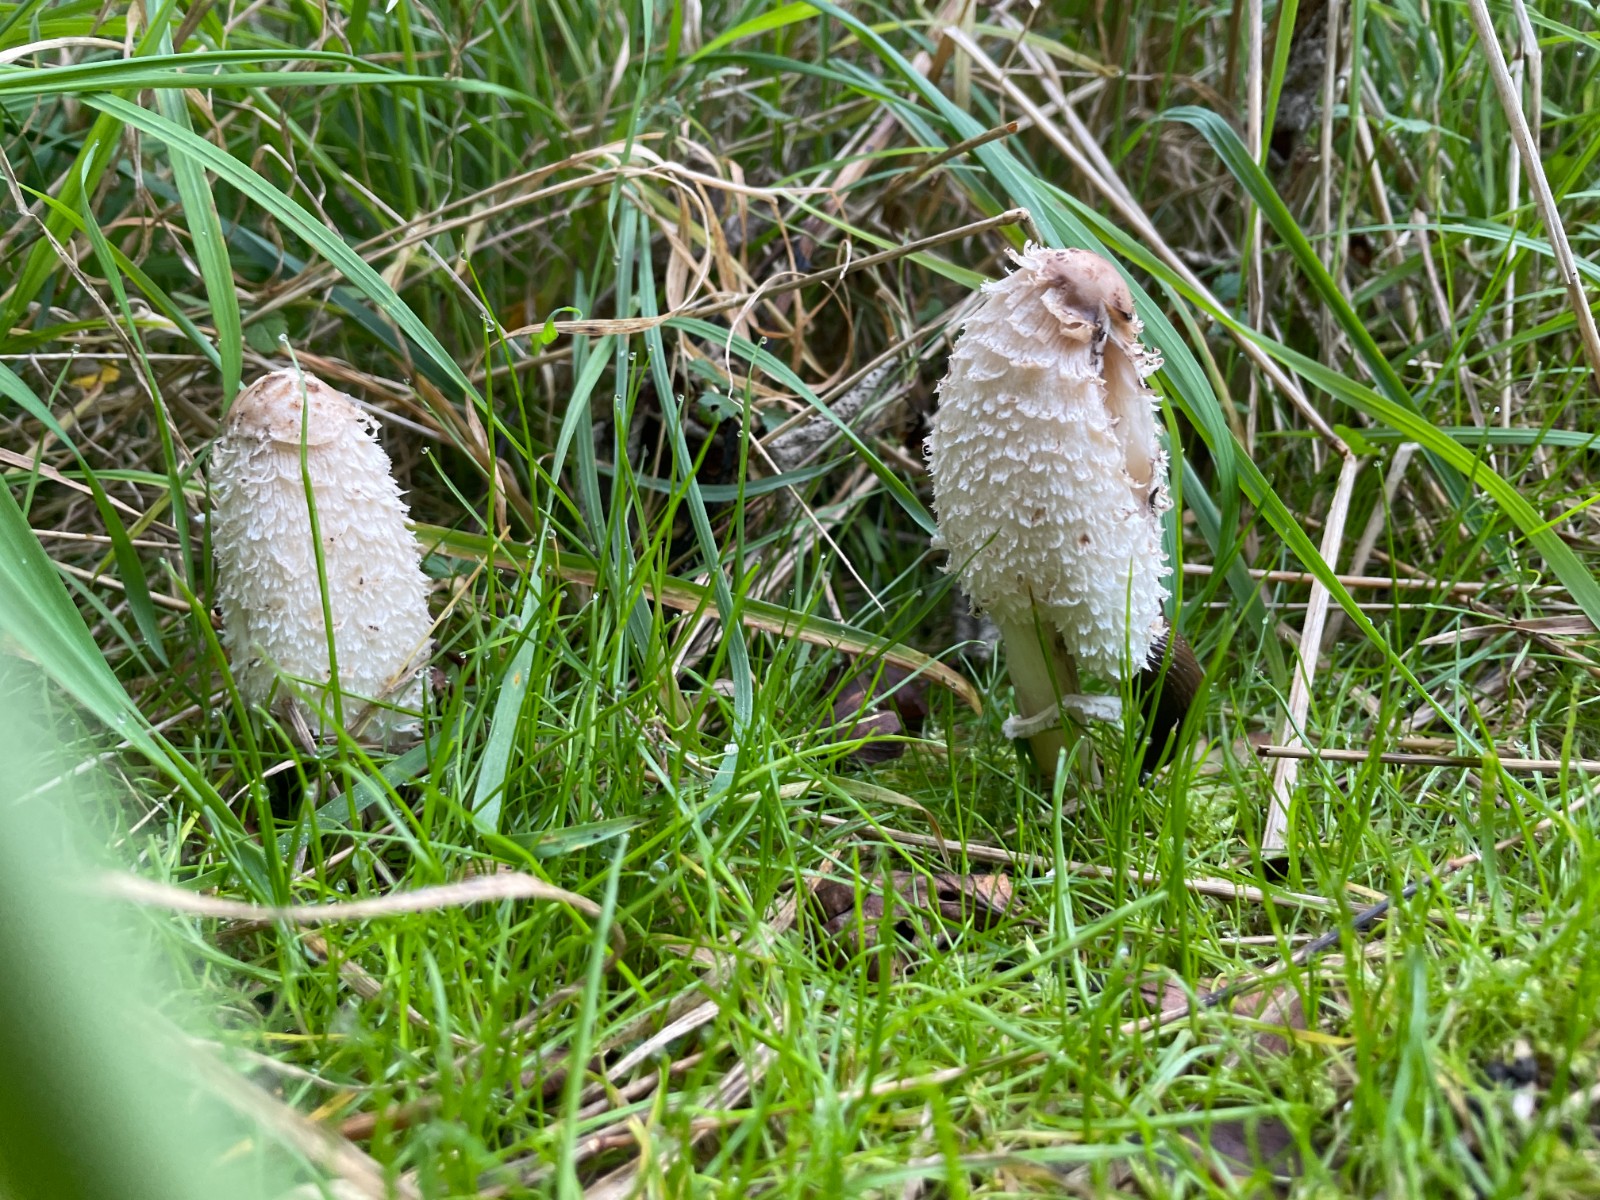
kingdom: Fungi
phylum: Basidiomycota
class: Agaricomycetes
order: Agaricales
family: Agaricaceae
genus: Coprinus
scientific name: Coprinus comatus
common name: stor parykhat
